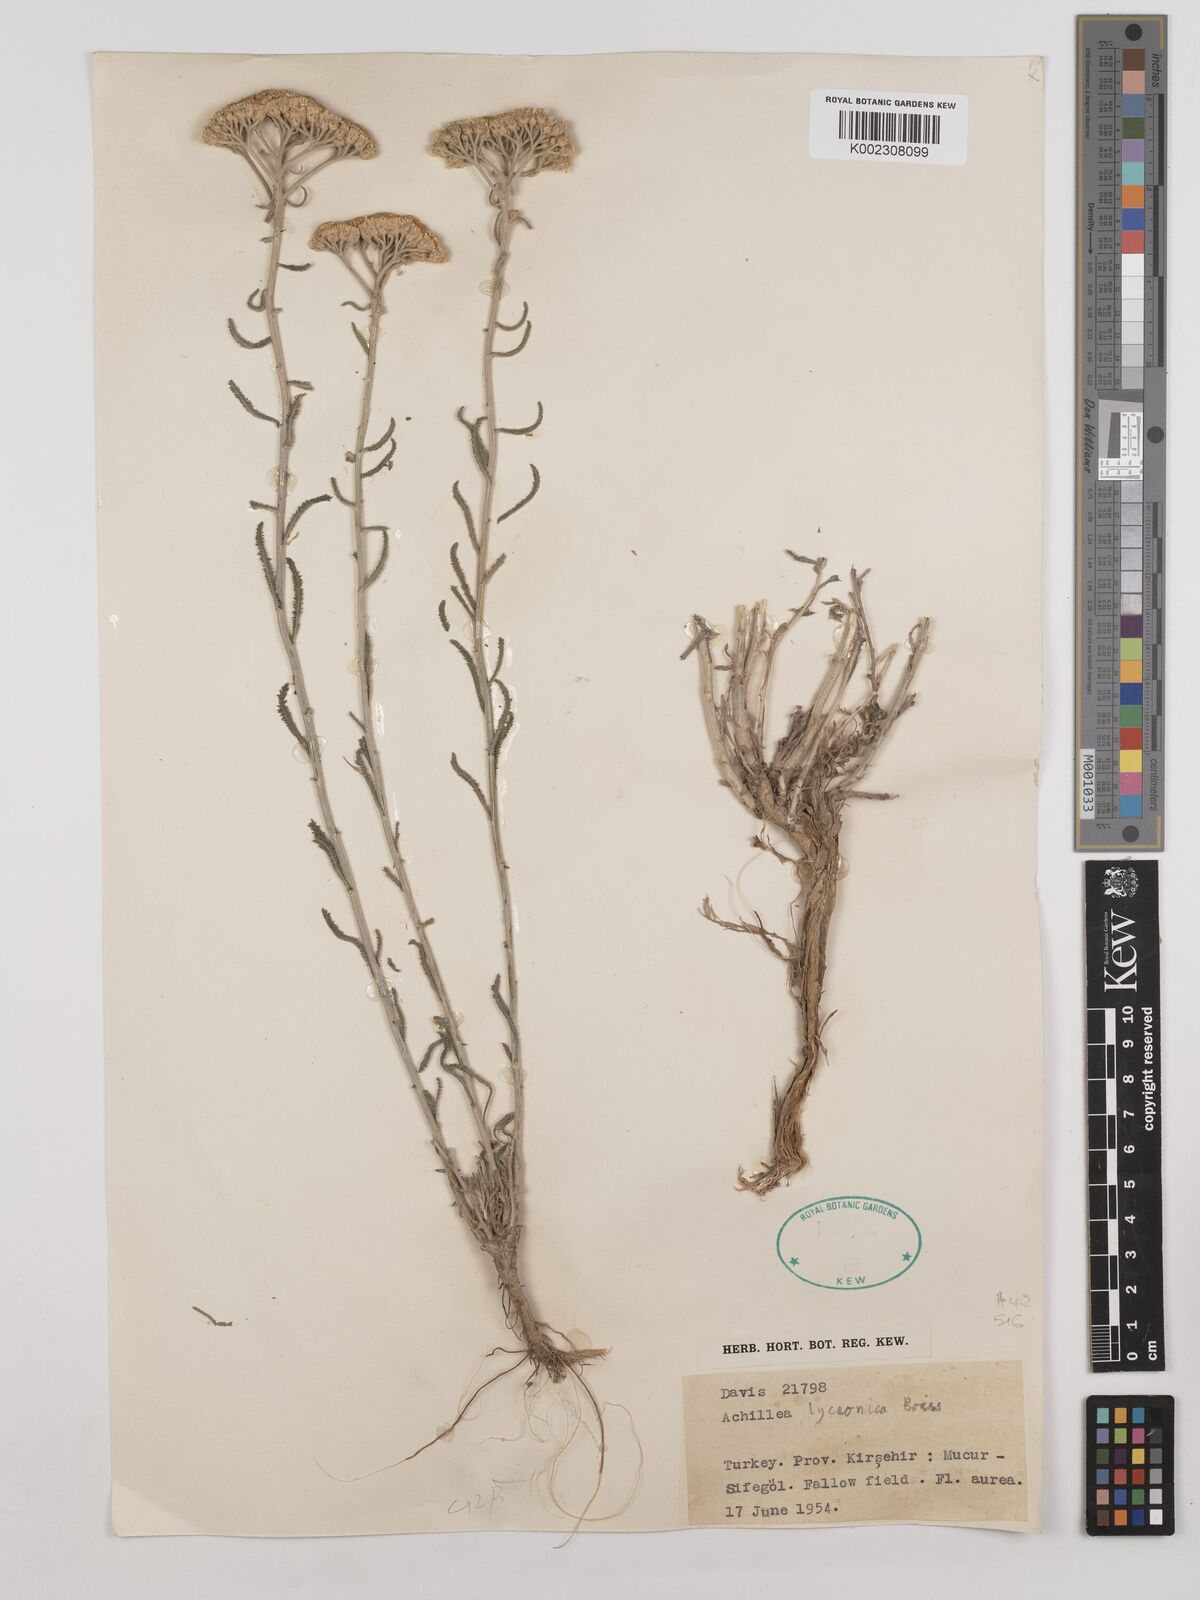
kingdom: Plantae
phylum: Tracheophyta
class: Magnoliopsida
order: Asterales
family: Asteraceae
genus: Achillea
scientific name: Achillea lycaonica
